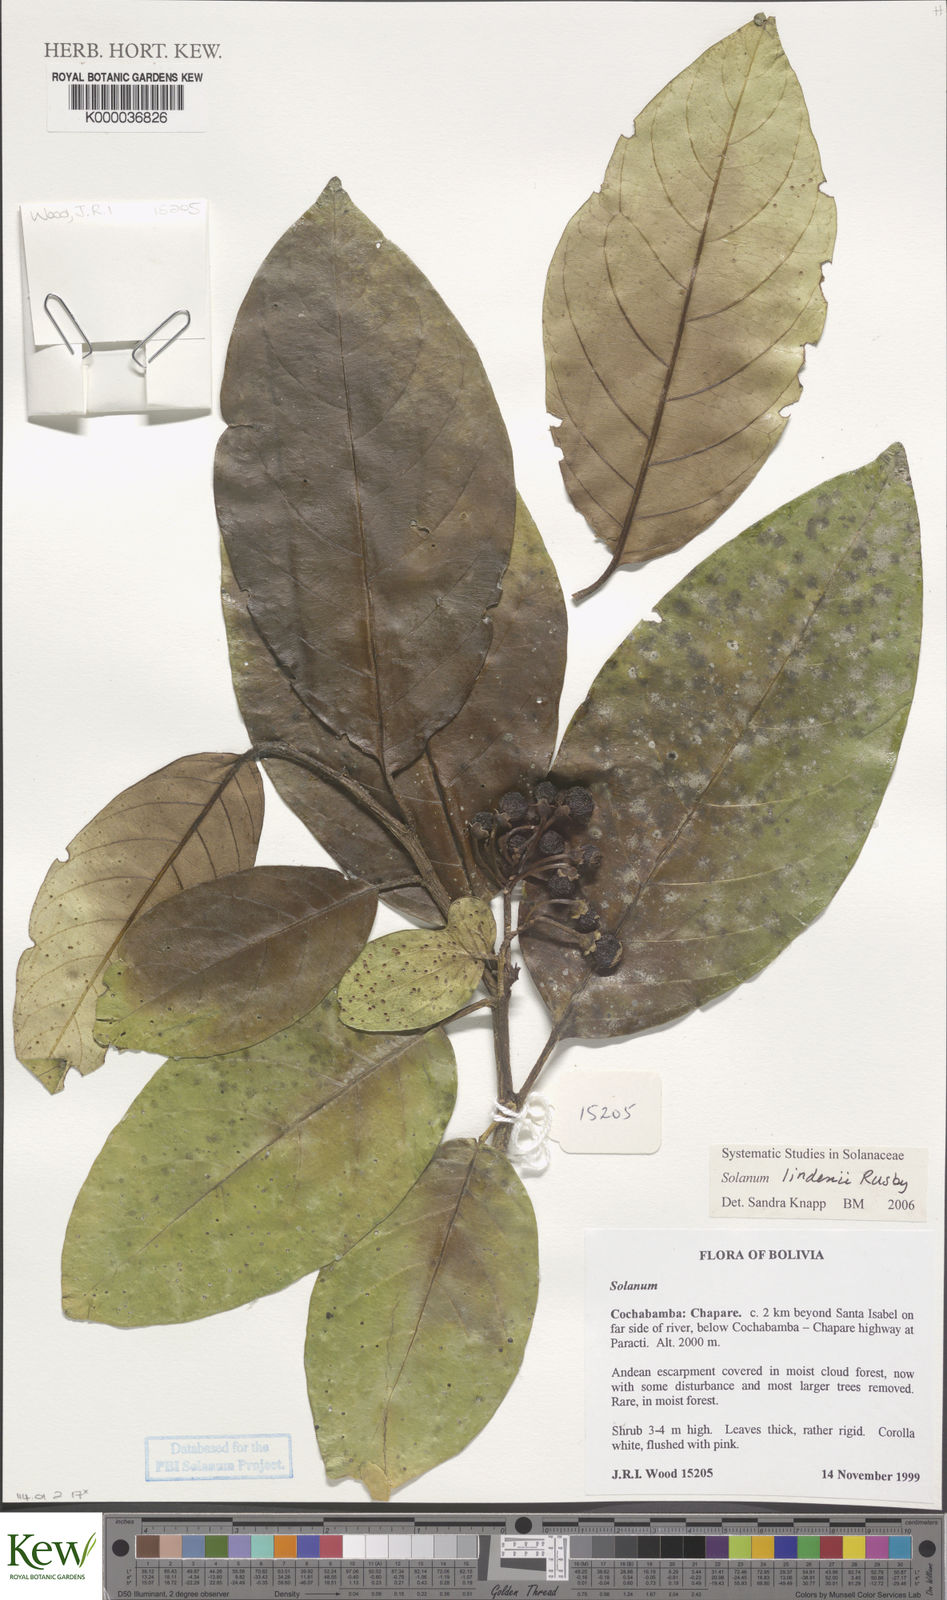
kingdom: Plantae
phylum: Tracheophyta
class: Magnoliopsida
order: Solanales
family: Solanaceae
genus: Solanum
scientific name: Solanum lindenii
